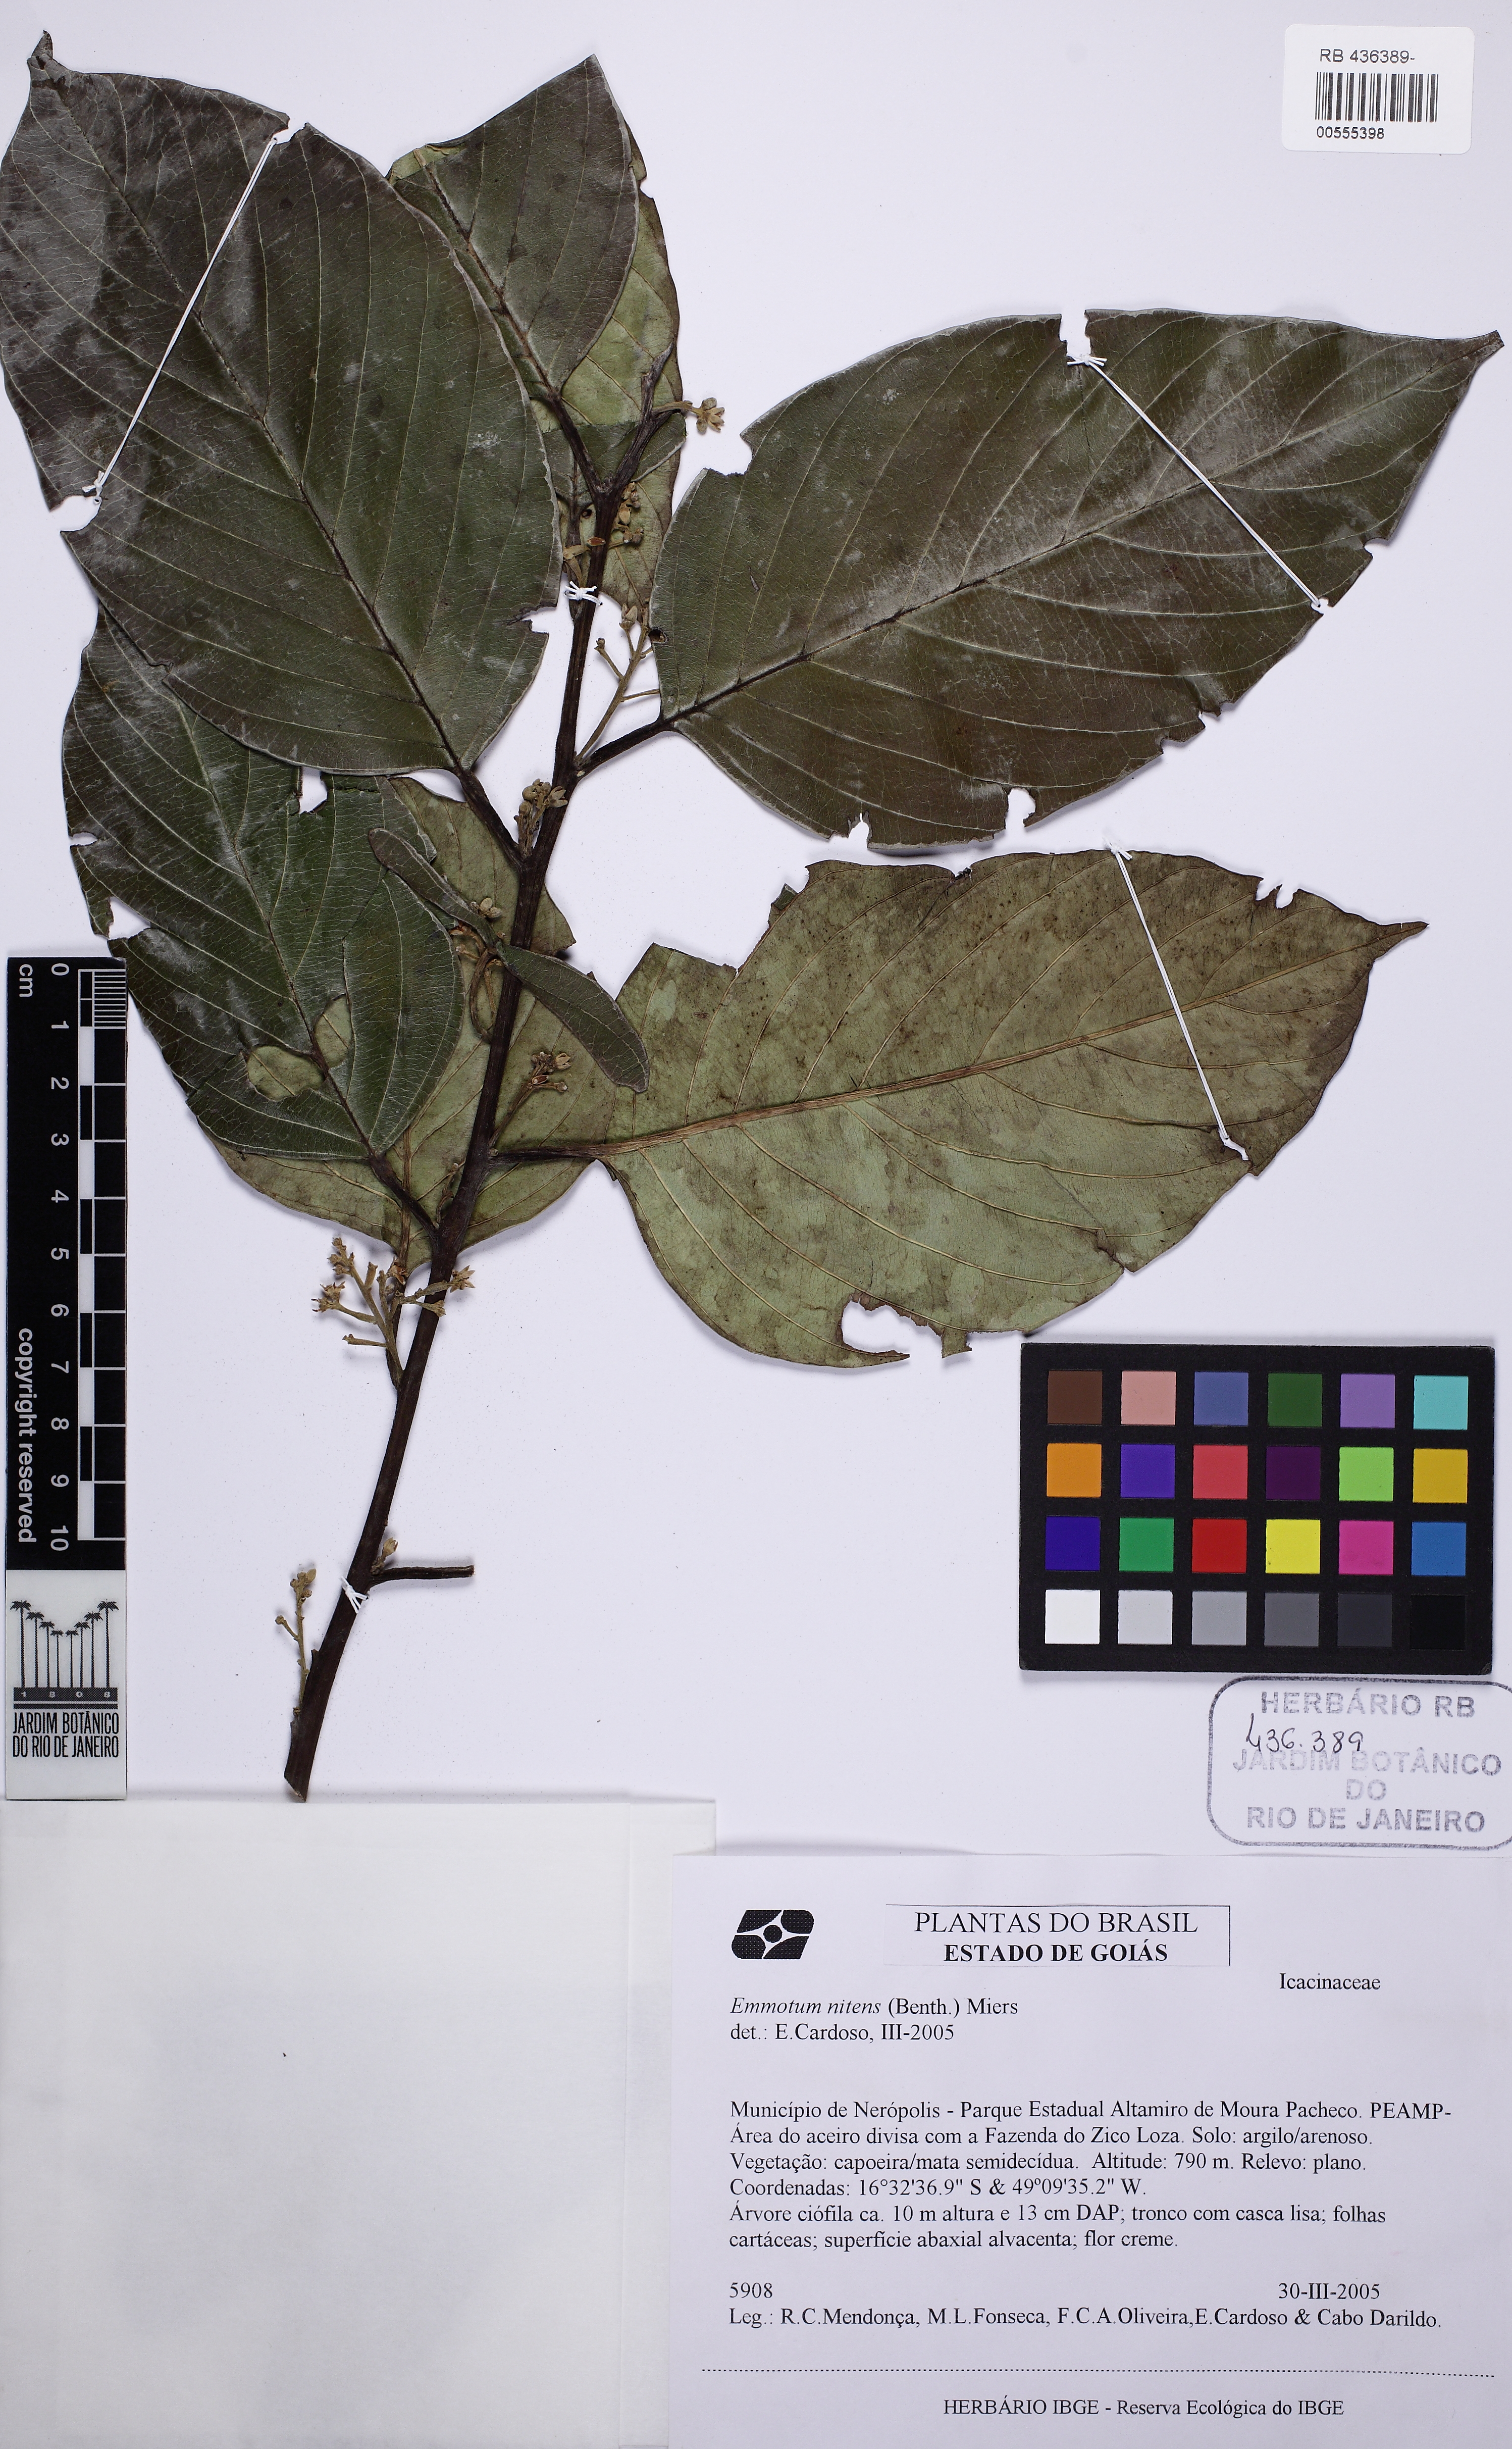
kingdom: Plantae
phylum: Tracheophyta
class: Magnoliopsida
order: Metteniusales
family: Metteniusaceae
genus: Emmotum
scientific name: Emmotum nitens
